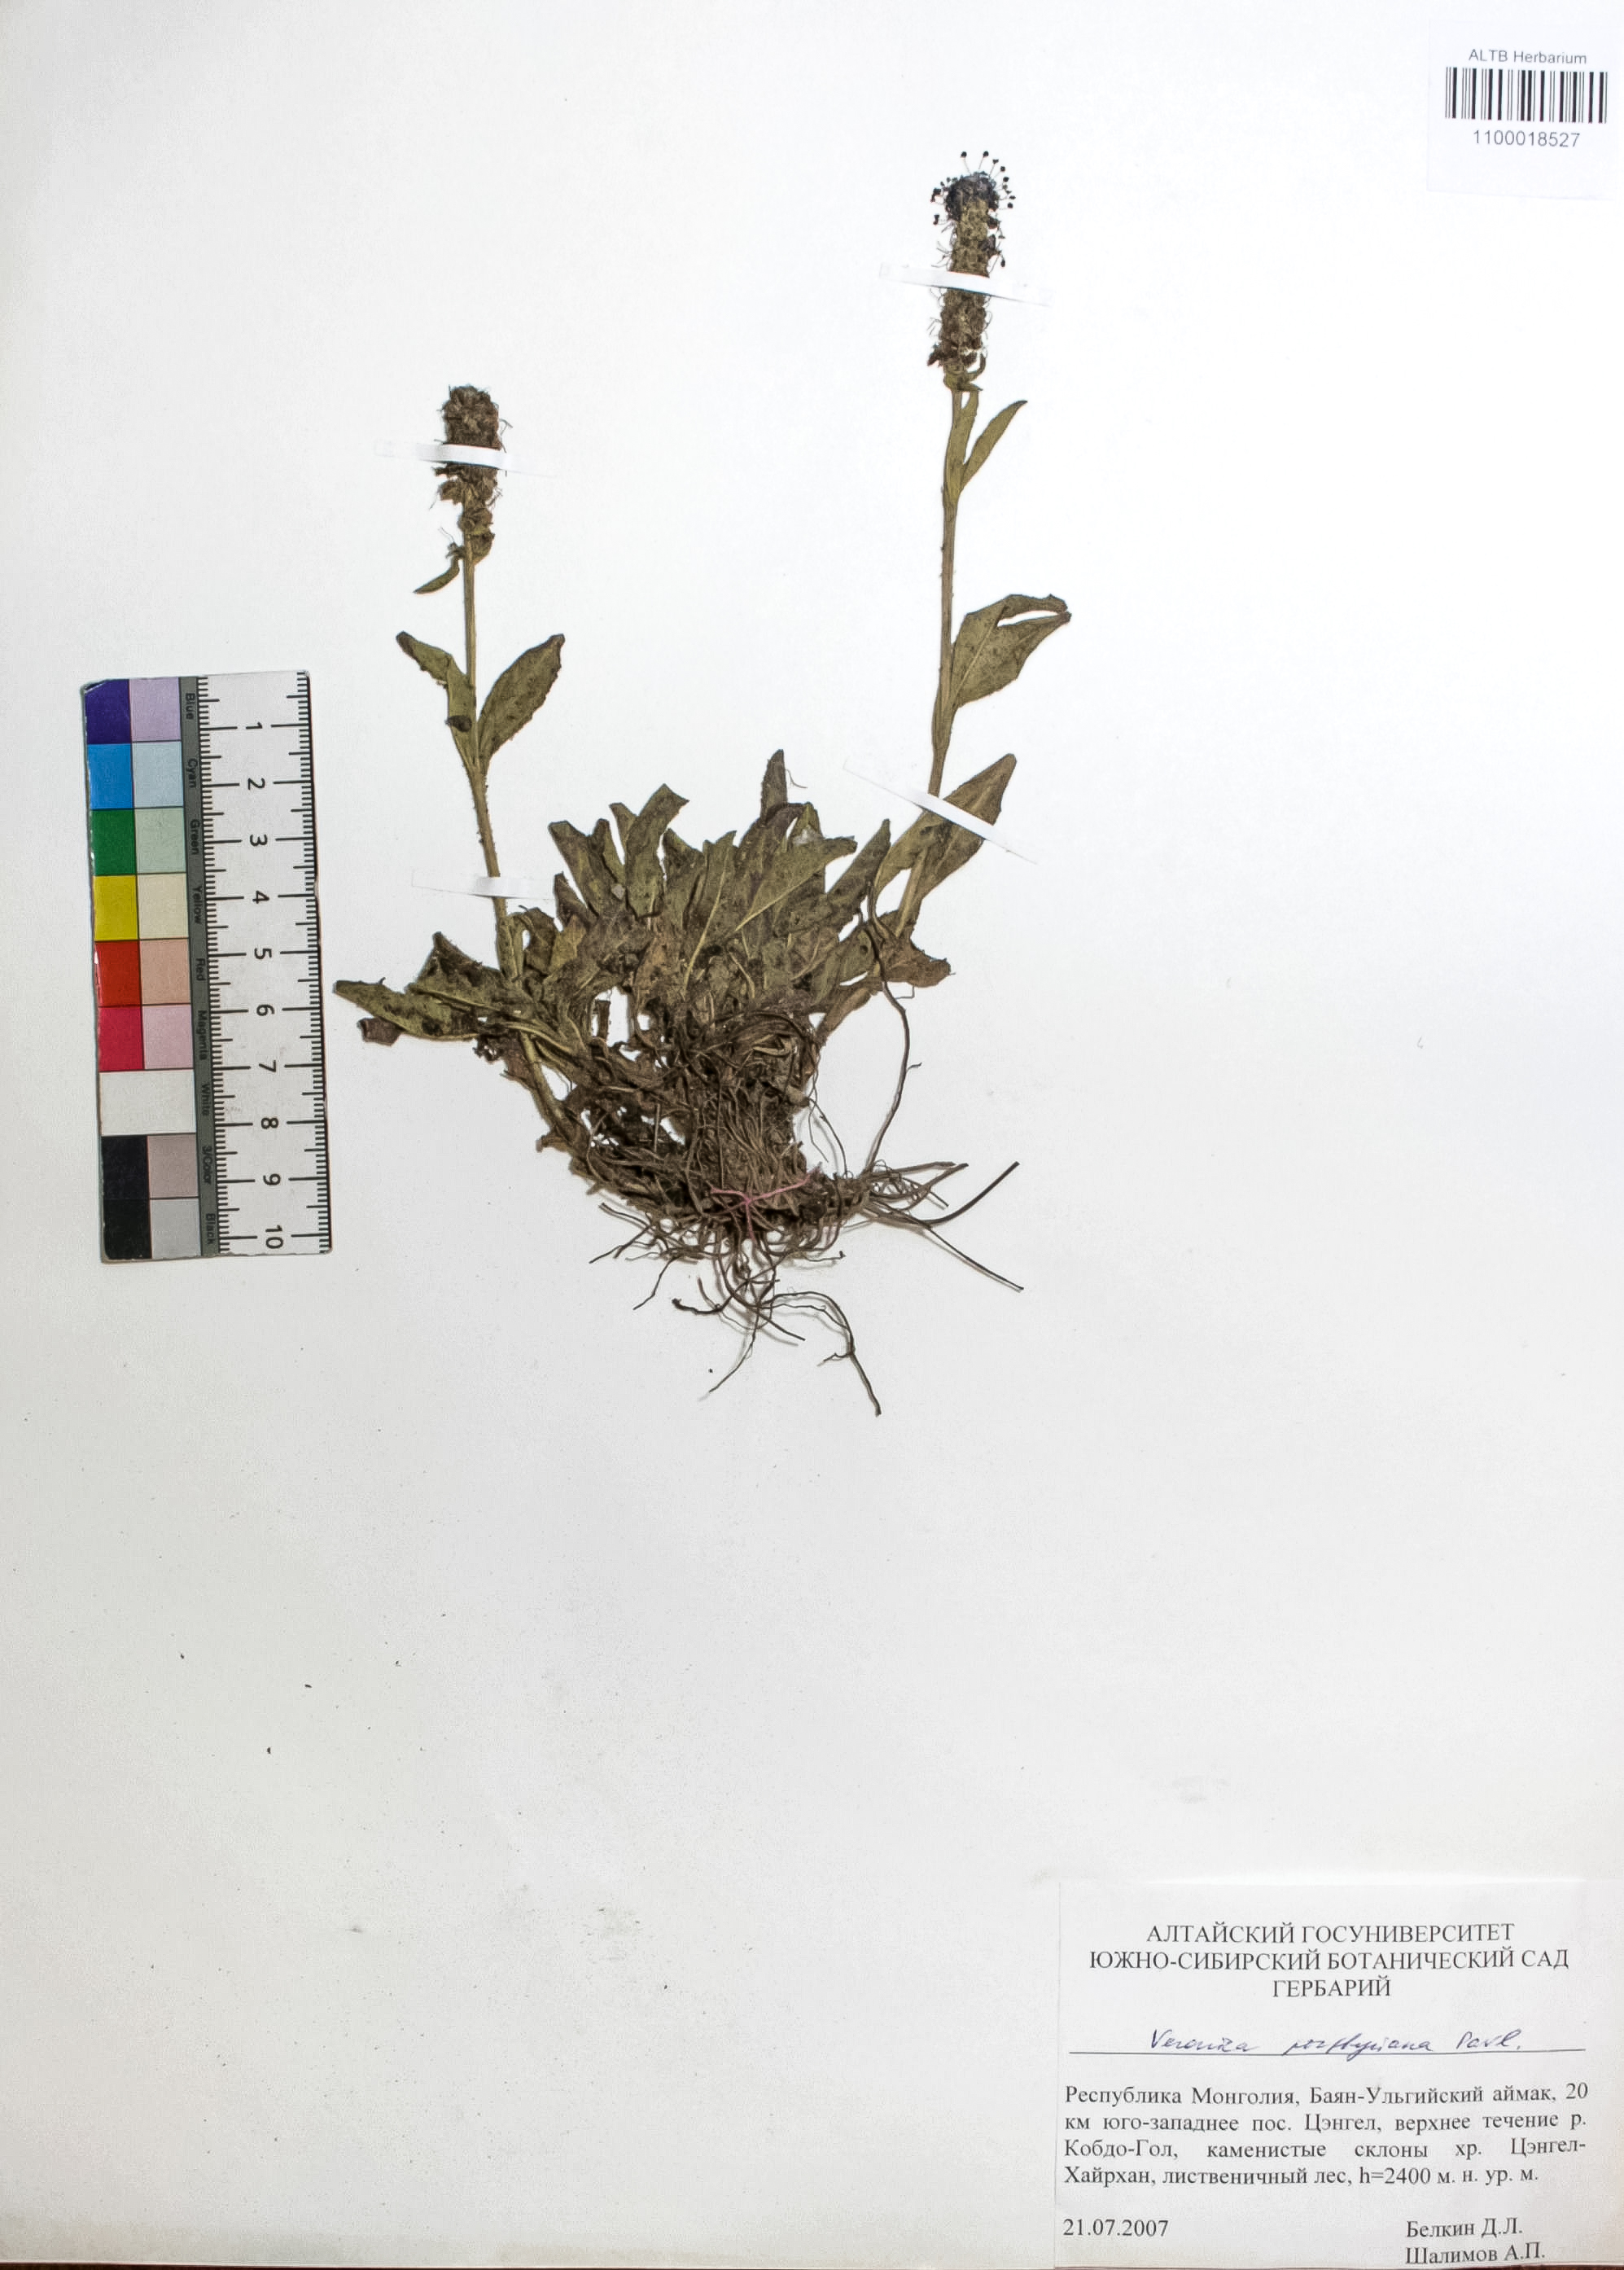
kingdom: Plantae
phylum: Tracheophyta
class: Magnoliopsida
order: Lamiales
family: Plantaginaceae
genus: Veronica
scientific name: Veronica porphyriana
